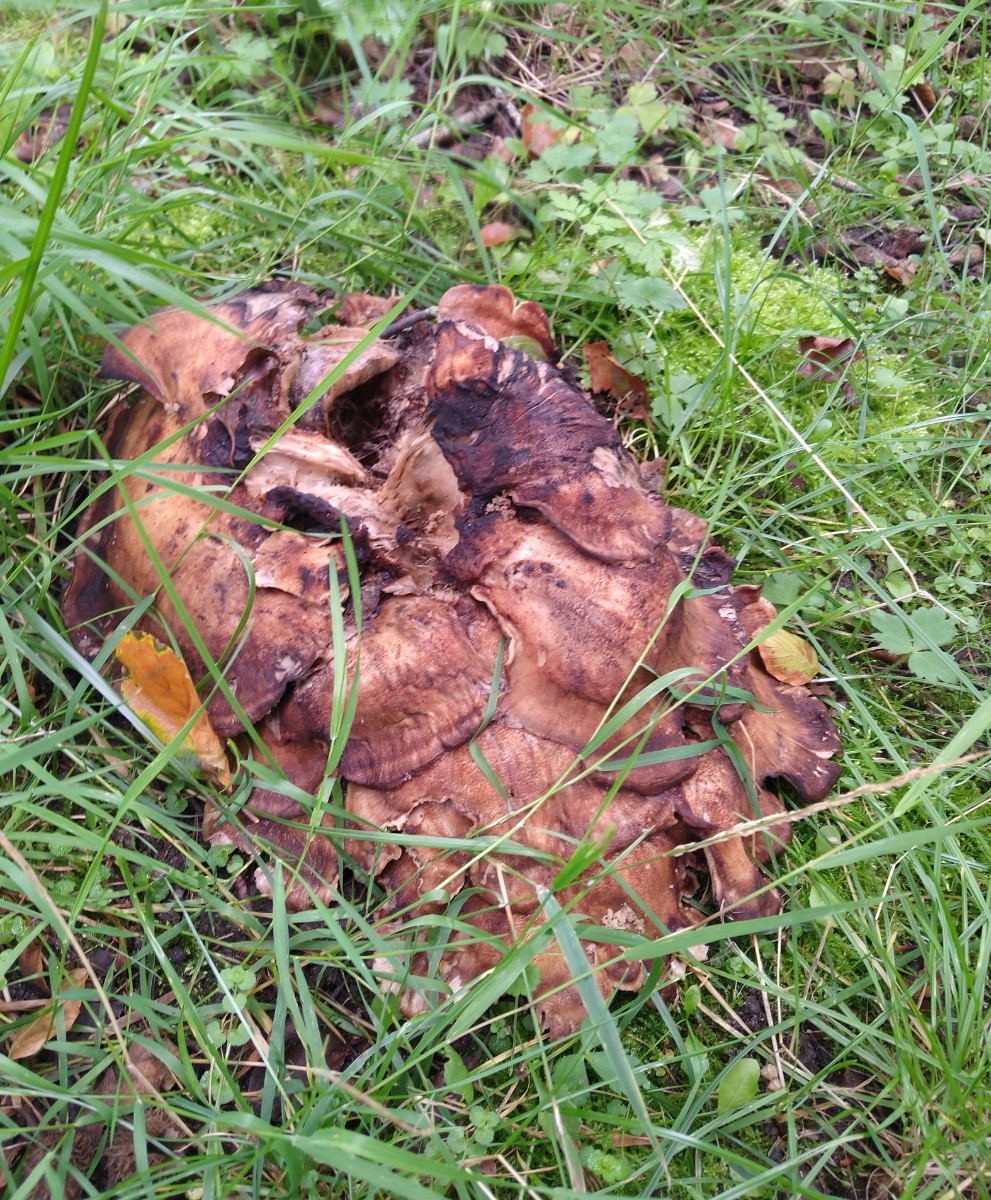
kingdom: Fungi
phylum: Basidiomycota
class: Agaricomycetes
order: Polyporales
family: Meripilaceae
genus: Meripilus
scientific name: Meripilus giganteus
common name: kæmpeporesvamp
